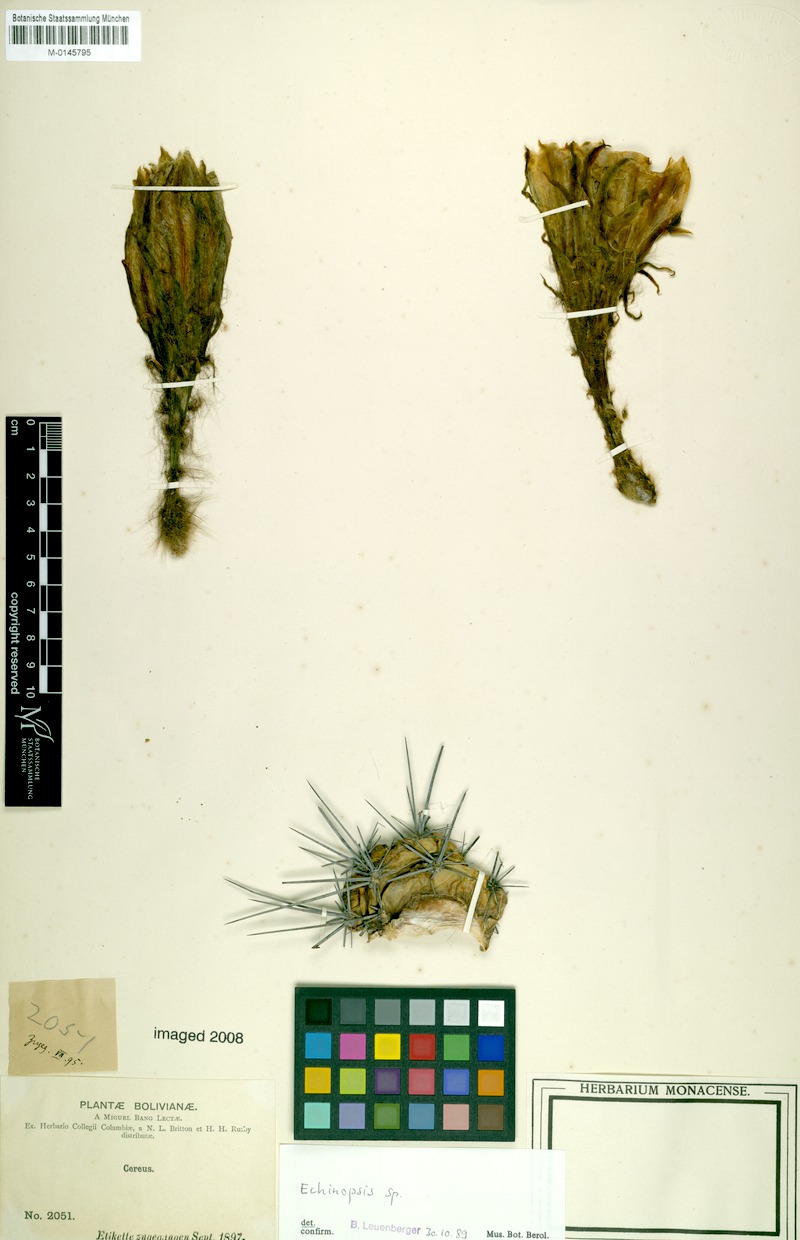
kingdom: Plantae
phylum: Tracheophyta
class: Magnoliopsida
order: Caryophyllales
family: Cactaceae
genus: Echinopsis
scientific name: Echinopsis
